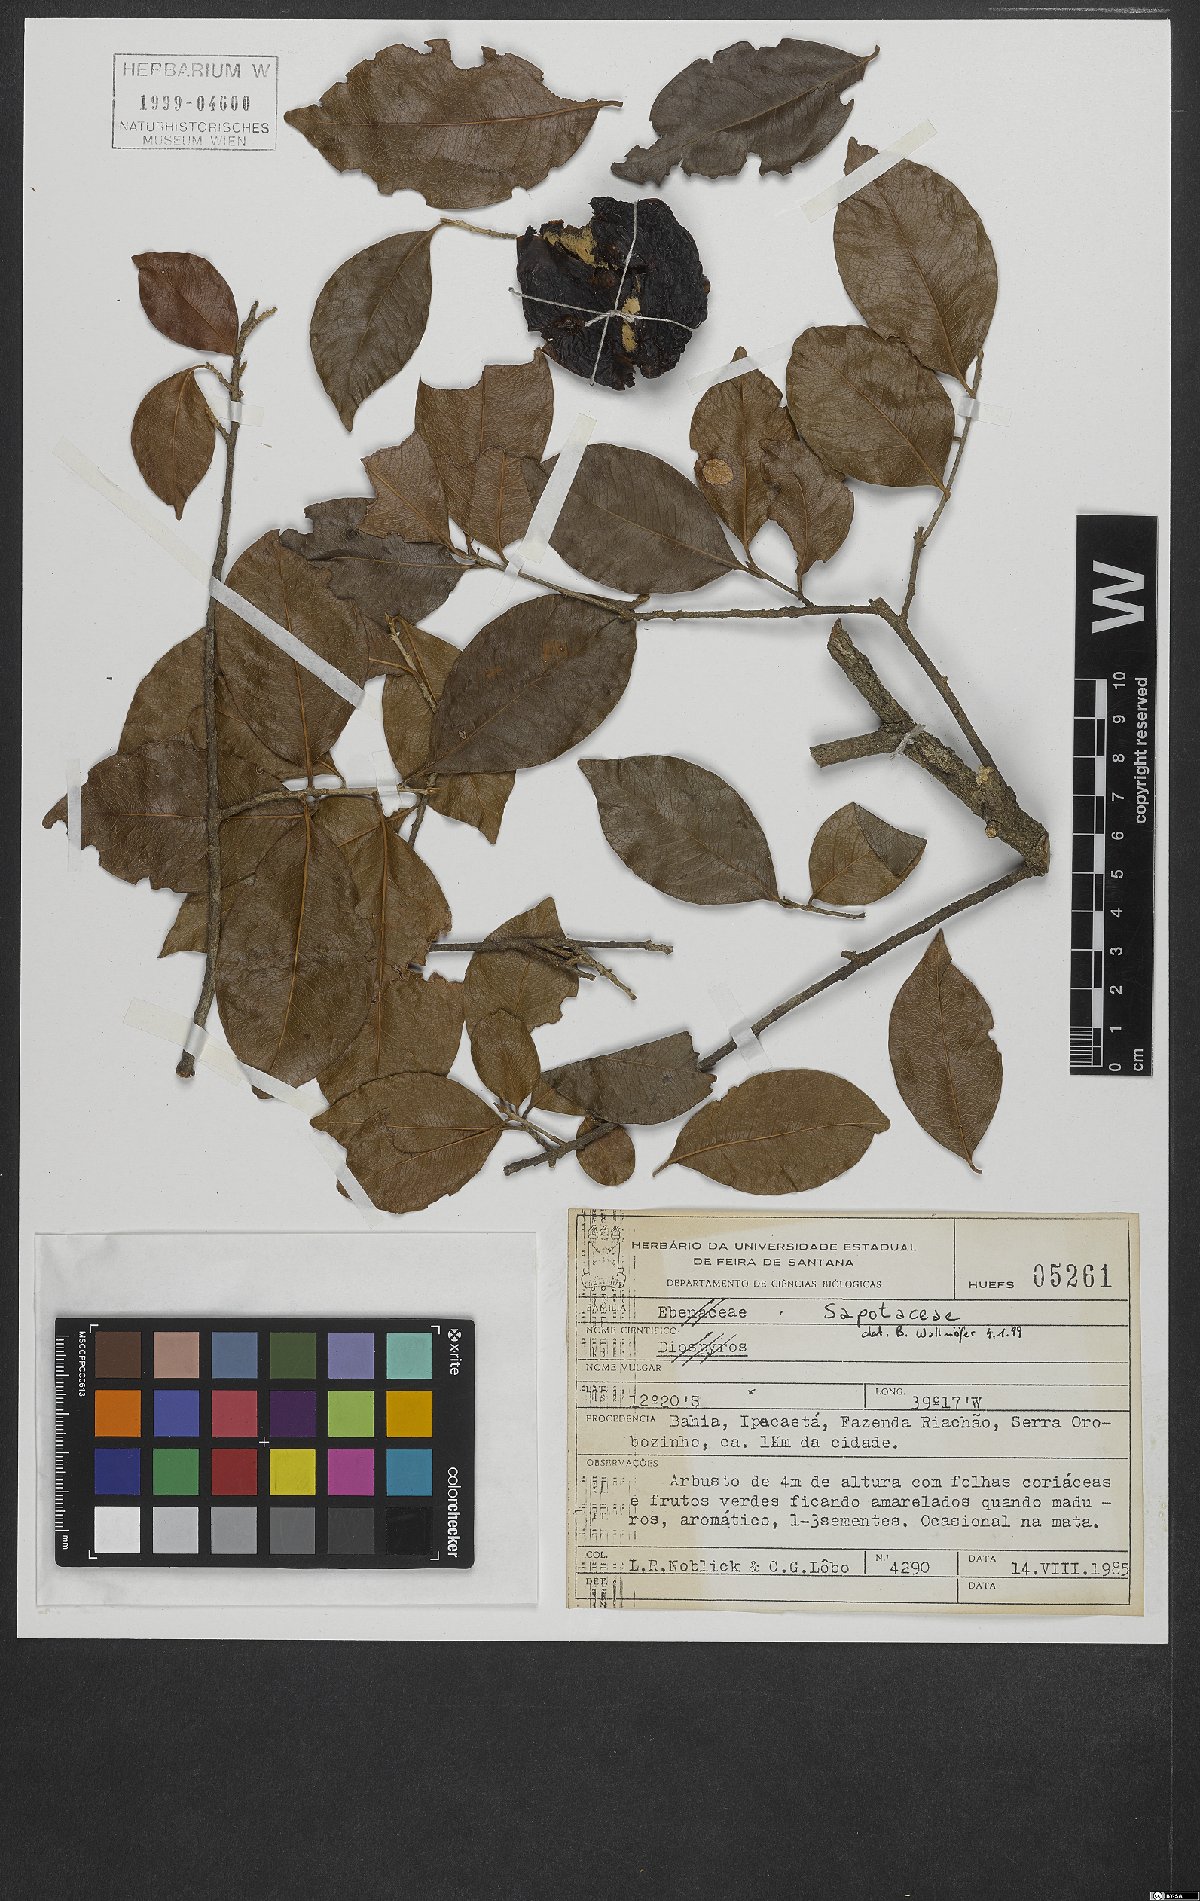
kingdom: Plantae
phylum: Tracheophyta
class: Magnoliopsida
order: Ericales
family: Sapotaceae
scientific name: Sapotaceae
